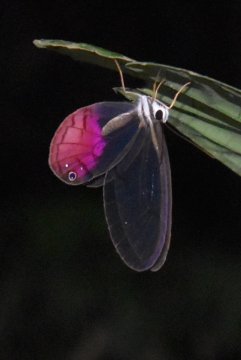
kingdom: Animalia
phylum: Arthropoda
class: Insecta
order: Lepidoptera
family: Nymphalidae
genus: Cithaerias
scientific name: Cithaerias pireta
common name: Rusted Clearwing-Satyr
